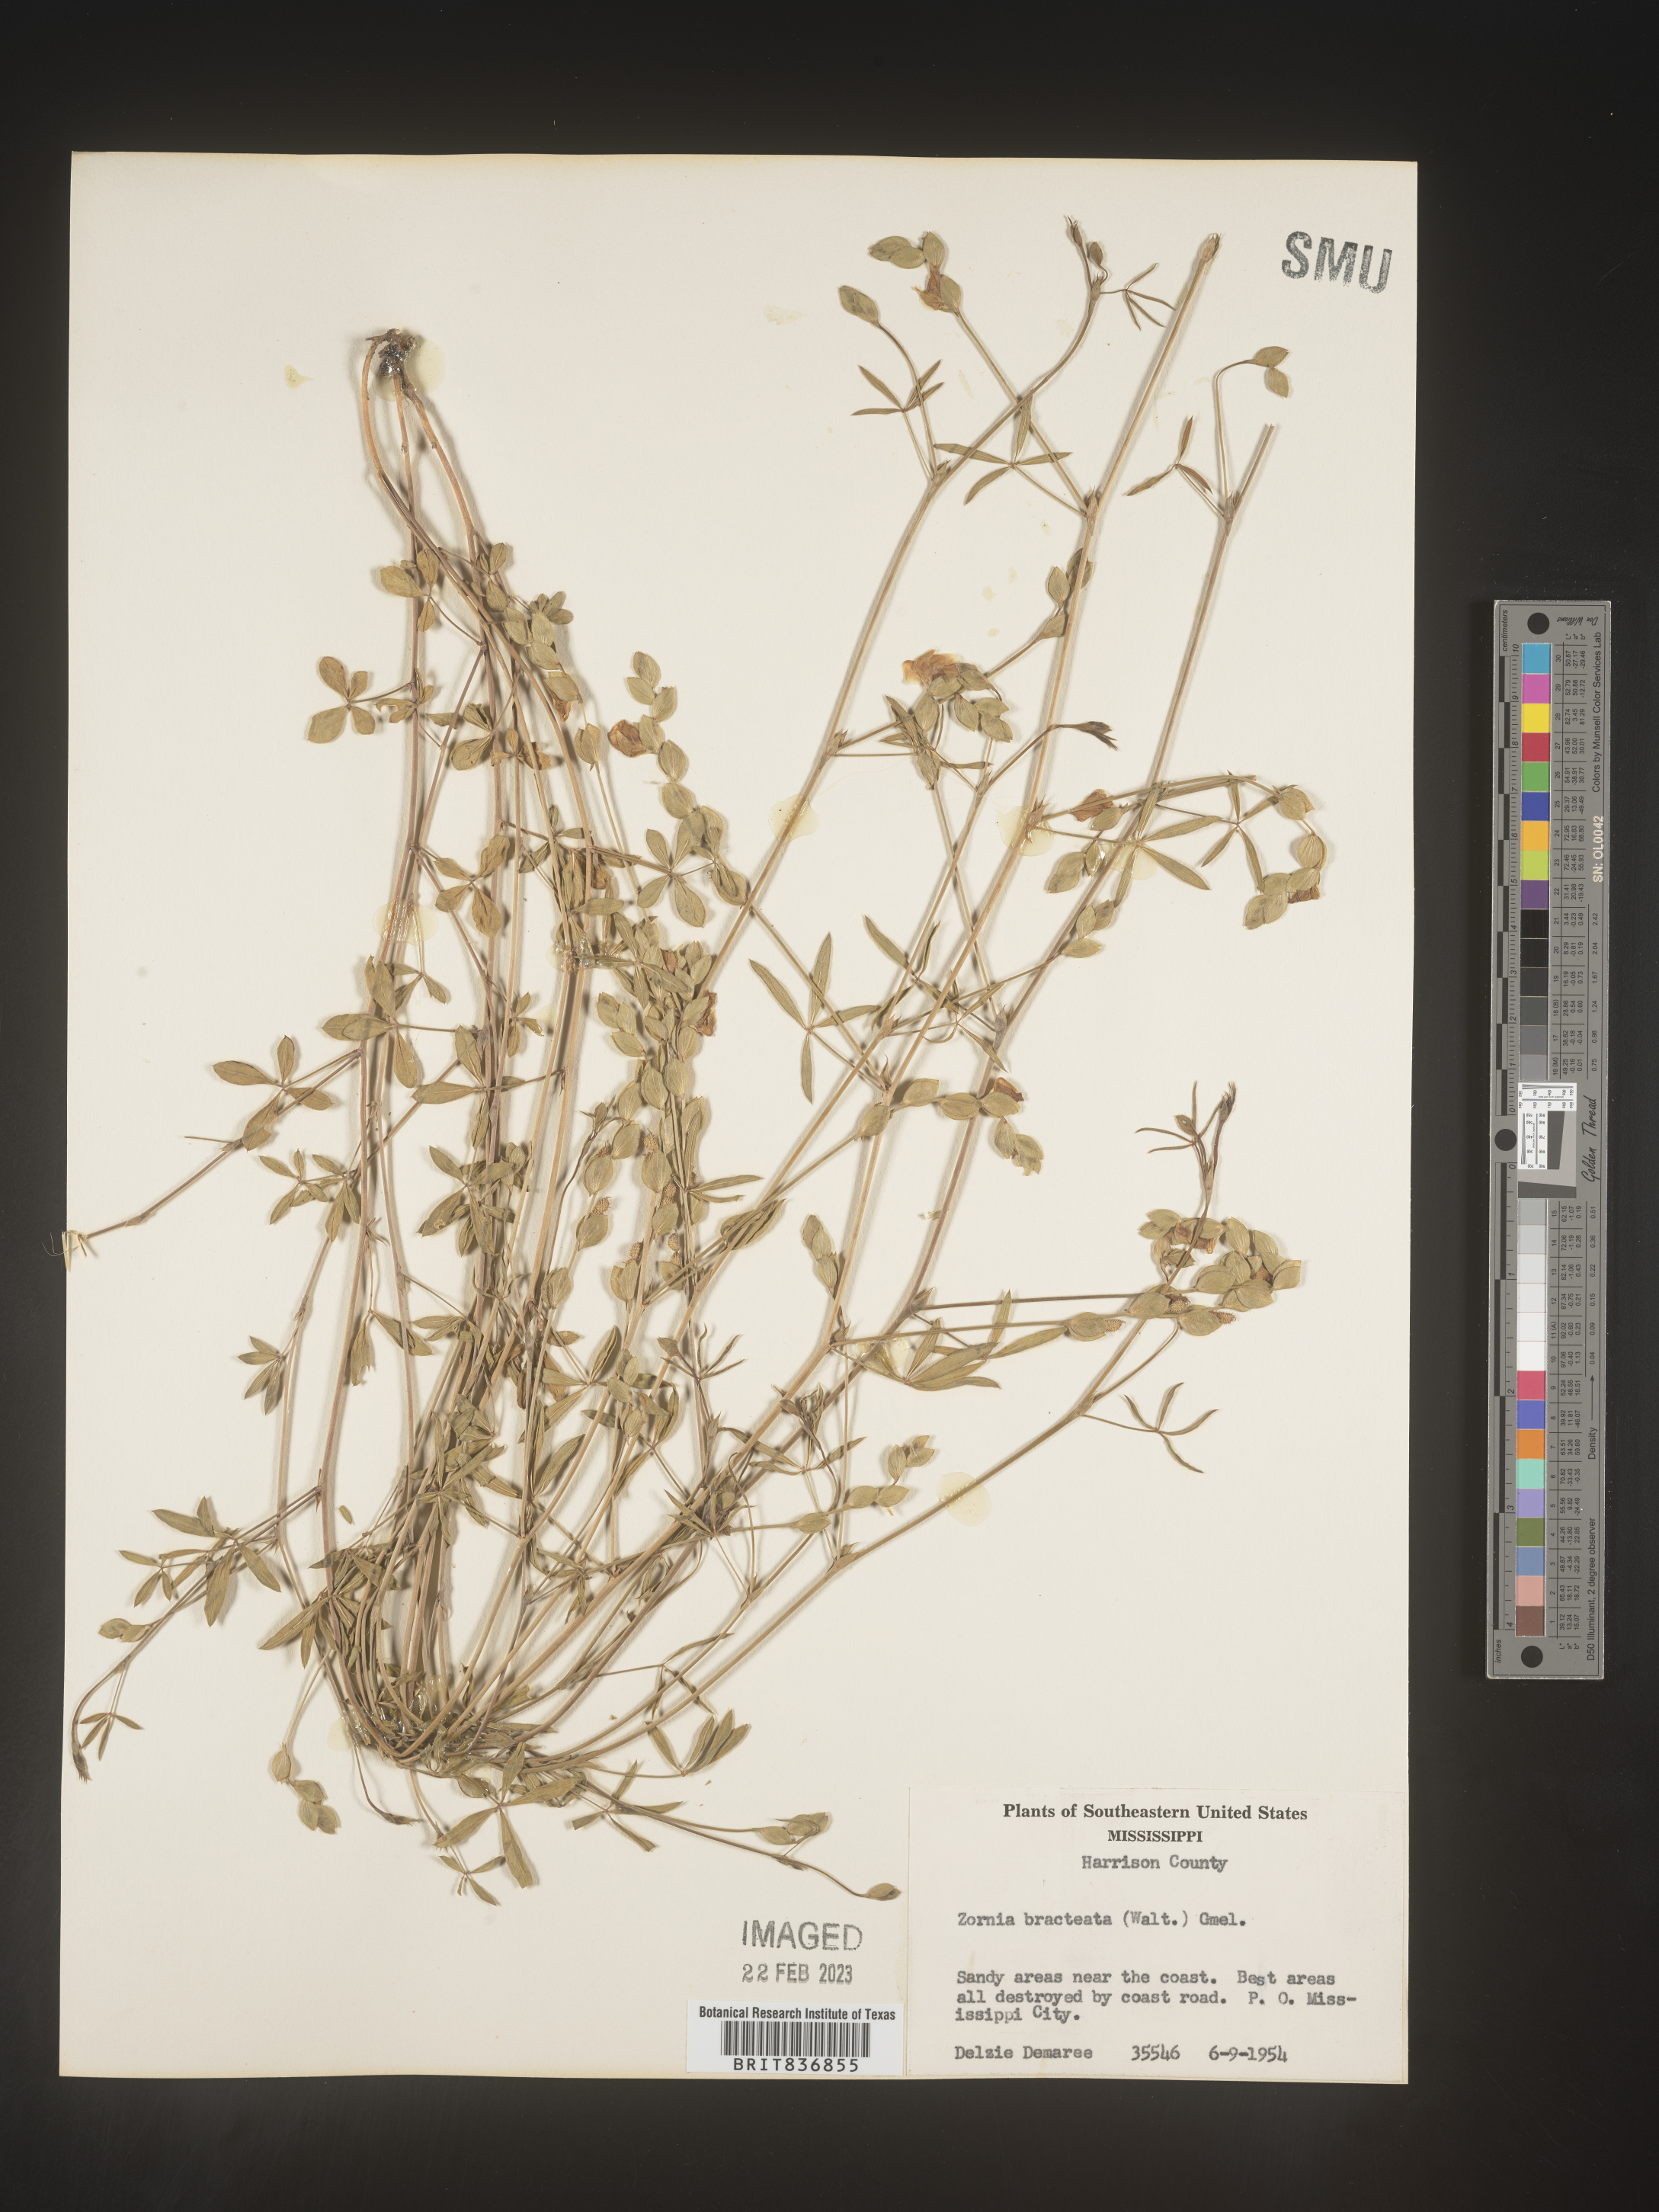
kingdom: Plantae
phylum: Tracheophyta
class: Magnoliopsida
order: Fabales
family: Fabaceae
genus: Zornia
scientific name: Zornia
